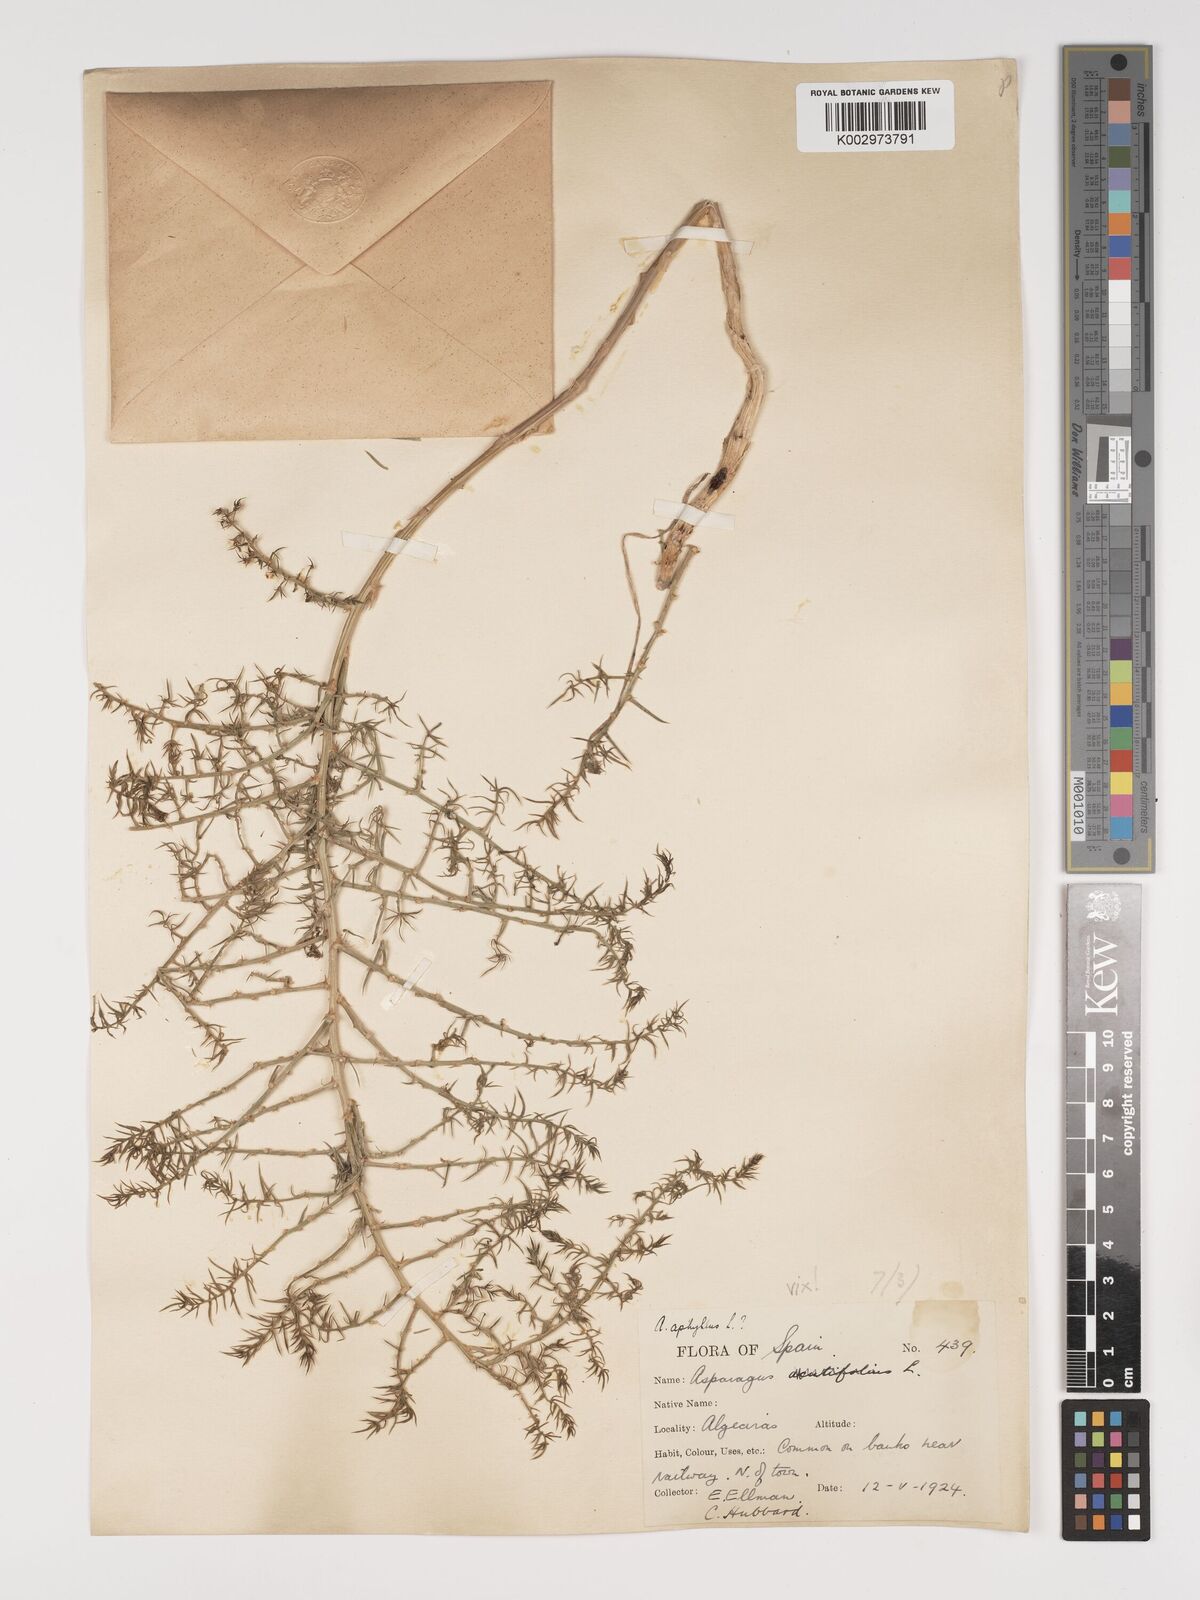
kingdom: Plantae
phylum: Tracheophyta
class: Liliopsida
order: Asparagales
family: Asparagaceae
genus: Asparagus
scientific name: Asparagus aphyllus
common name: Mediterranean asparagus
